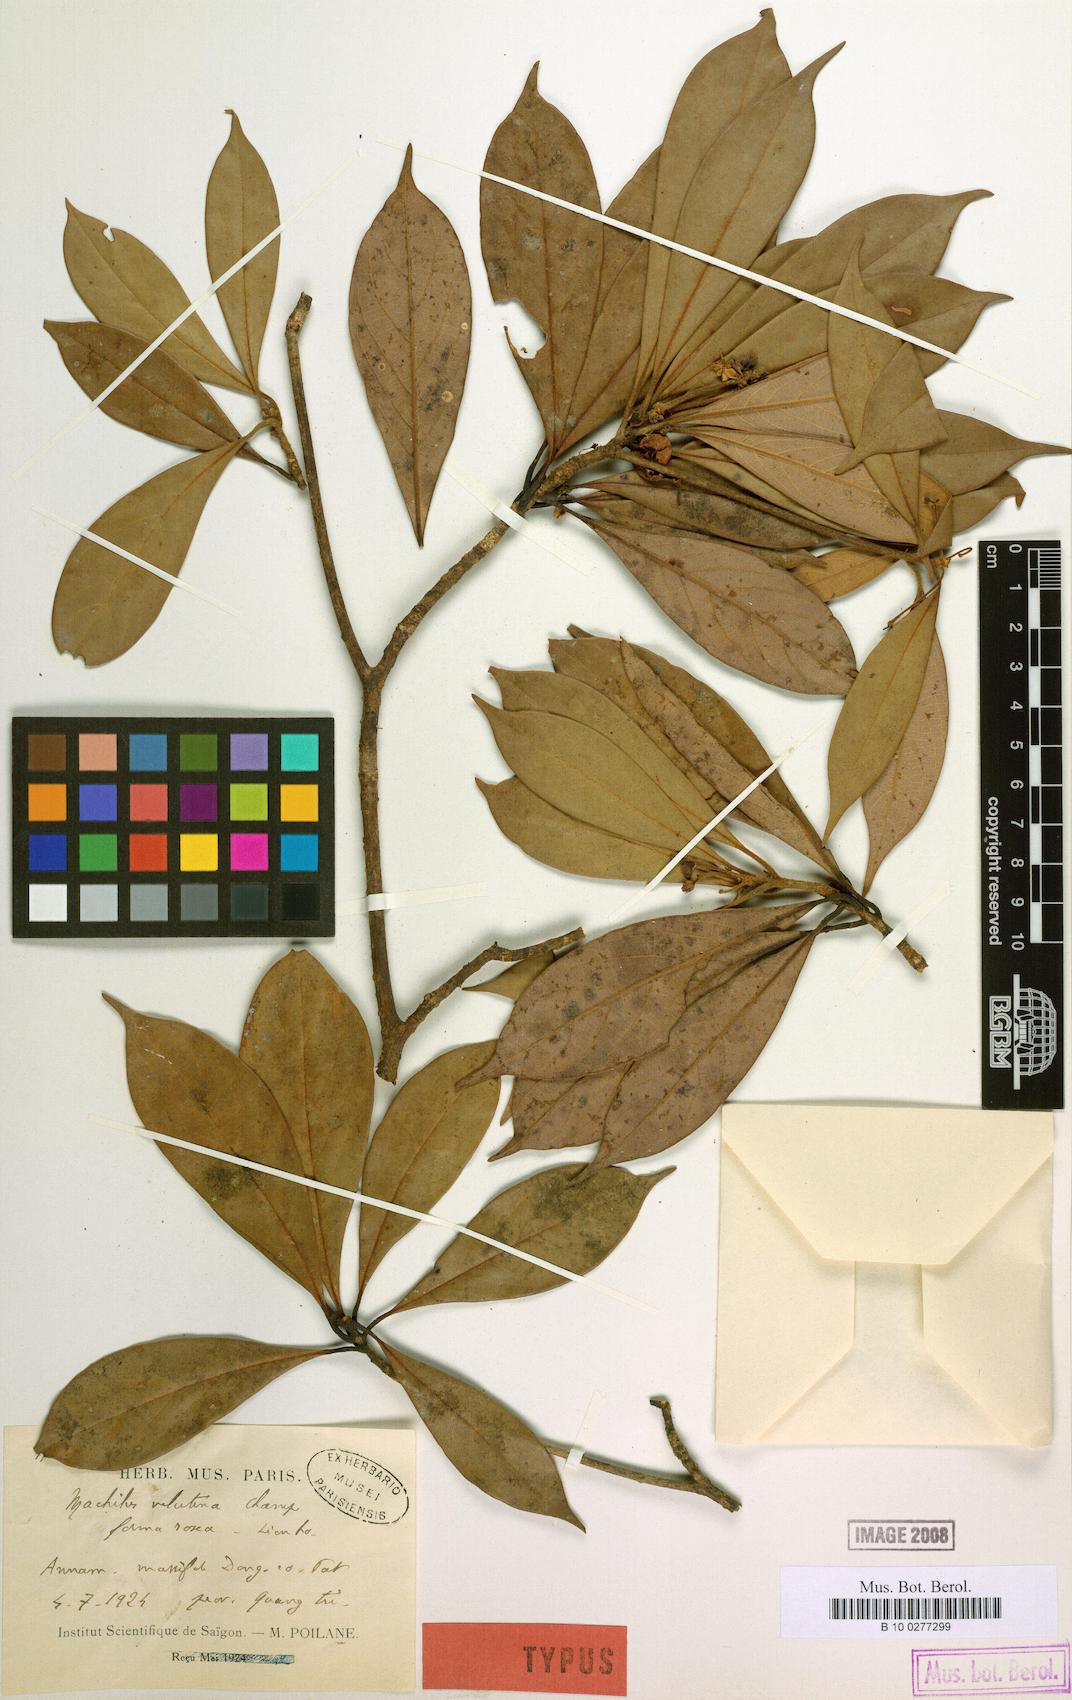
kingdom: Plantae
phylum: Tracheophyta
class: Magnoliopsida
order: Laurales
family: Lauraceae
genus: Machilus
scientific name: Machilus velutina
